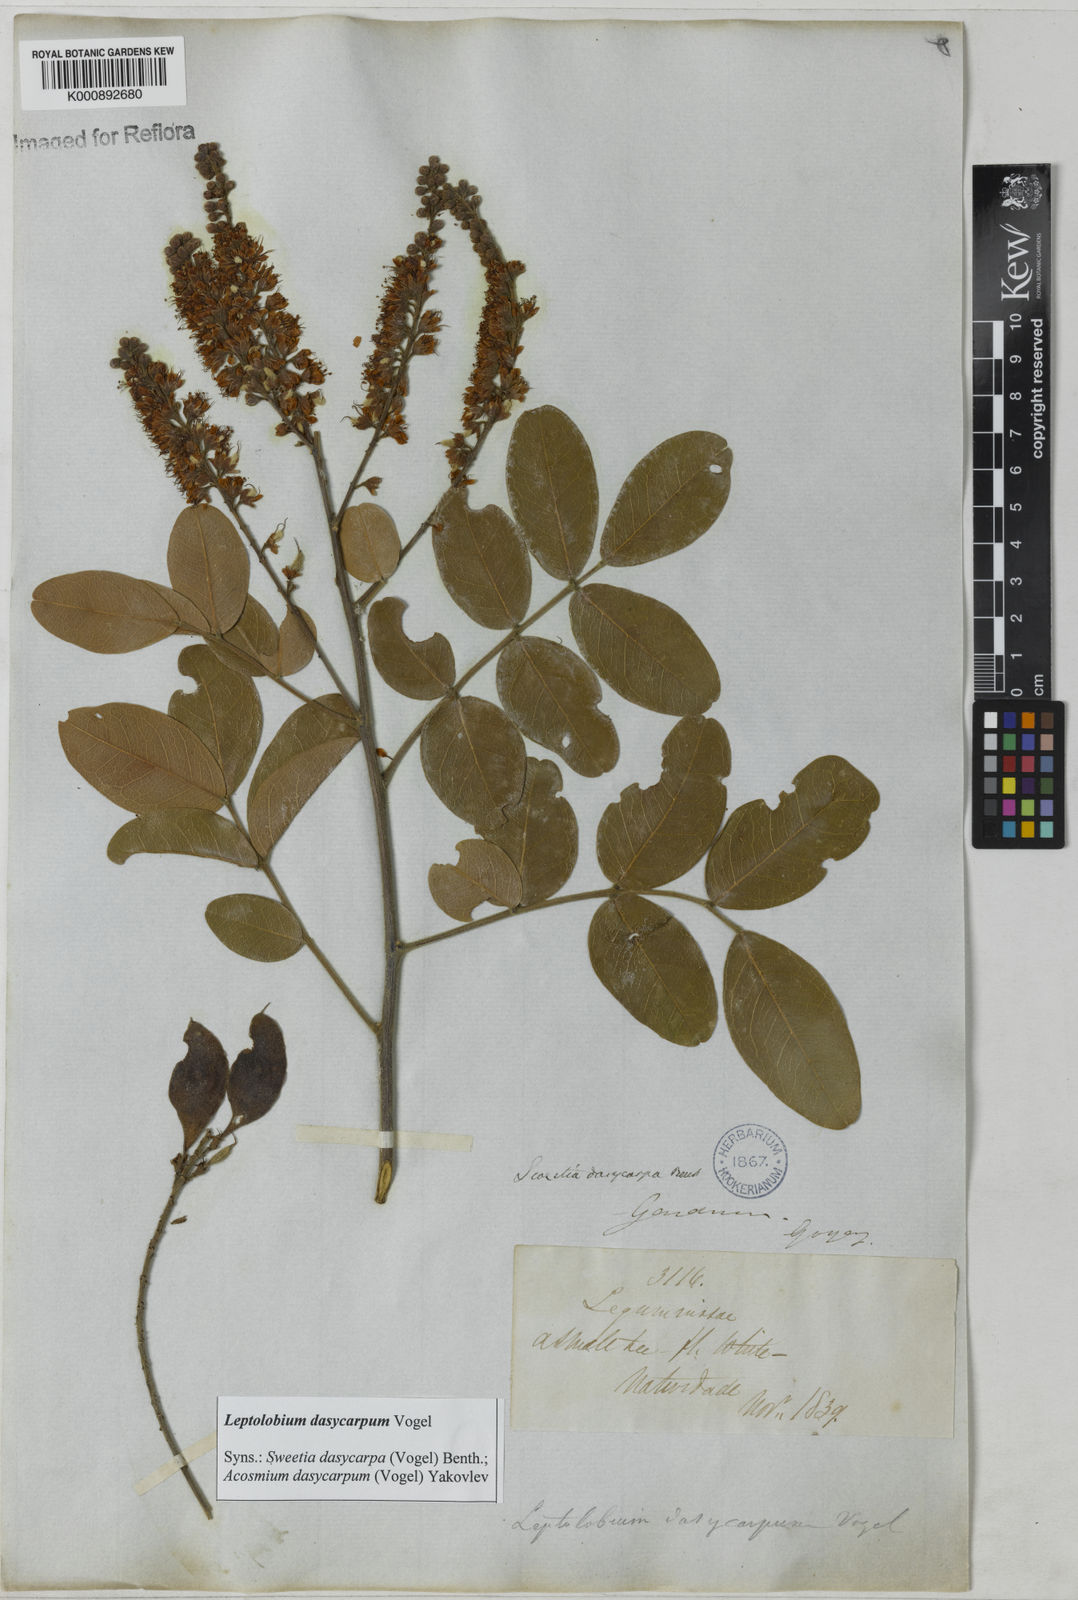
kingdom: Plantae
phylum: Tracheophyta
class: Magnoliopsida
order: Fabales
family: Fabaceae
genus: Leptolobium
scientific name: Leptolobium dasycarpum
